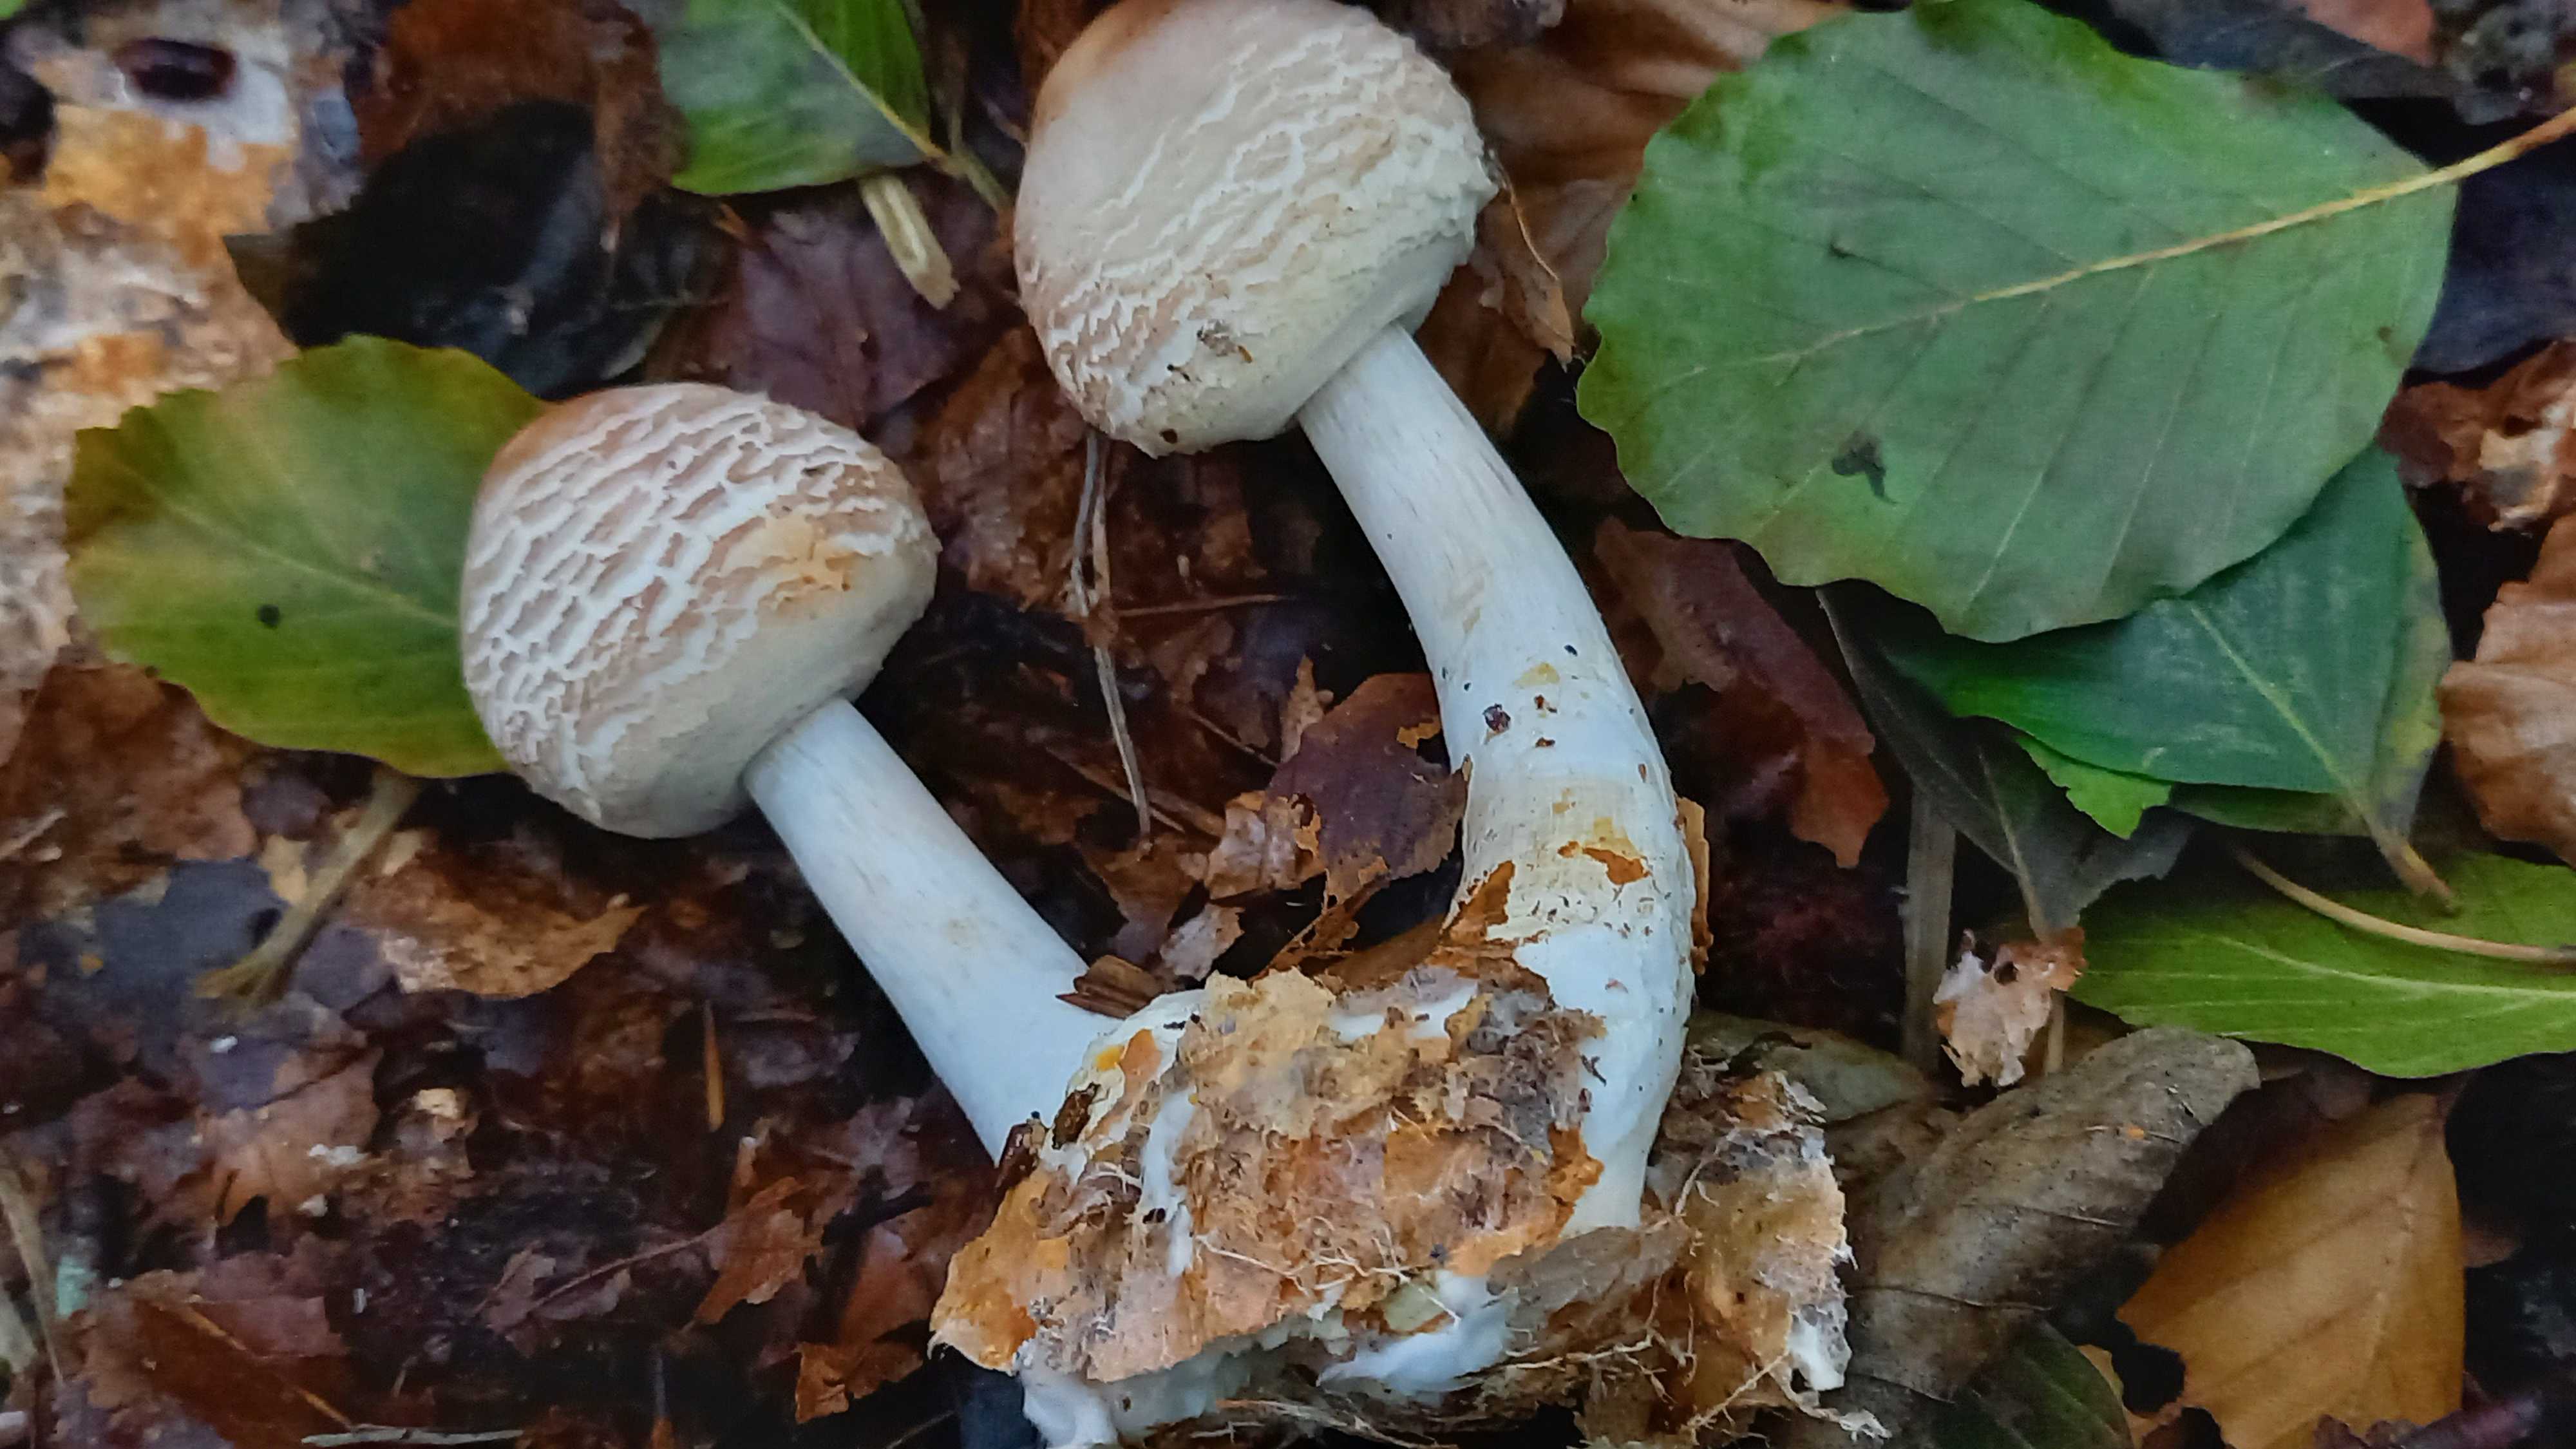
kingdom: Fungi
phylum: Basidiomycota
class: Agaricomycetes
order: Agaricales
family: Agaricaceae
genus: Chlorophyllum
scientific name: Chlorophyllum olivieri
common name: almindelig rabarberhat
